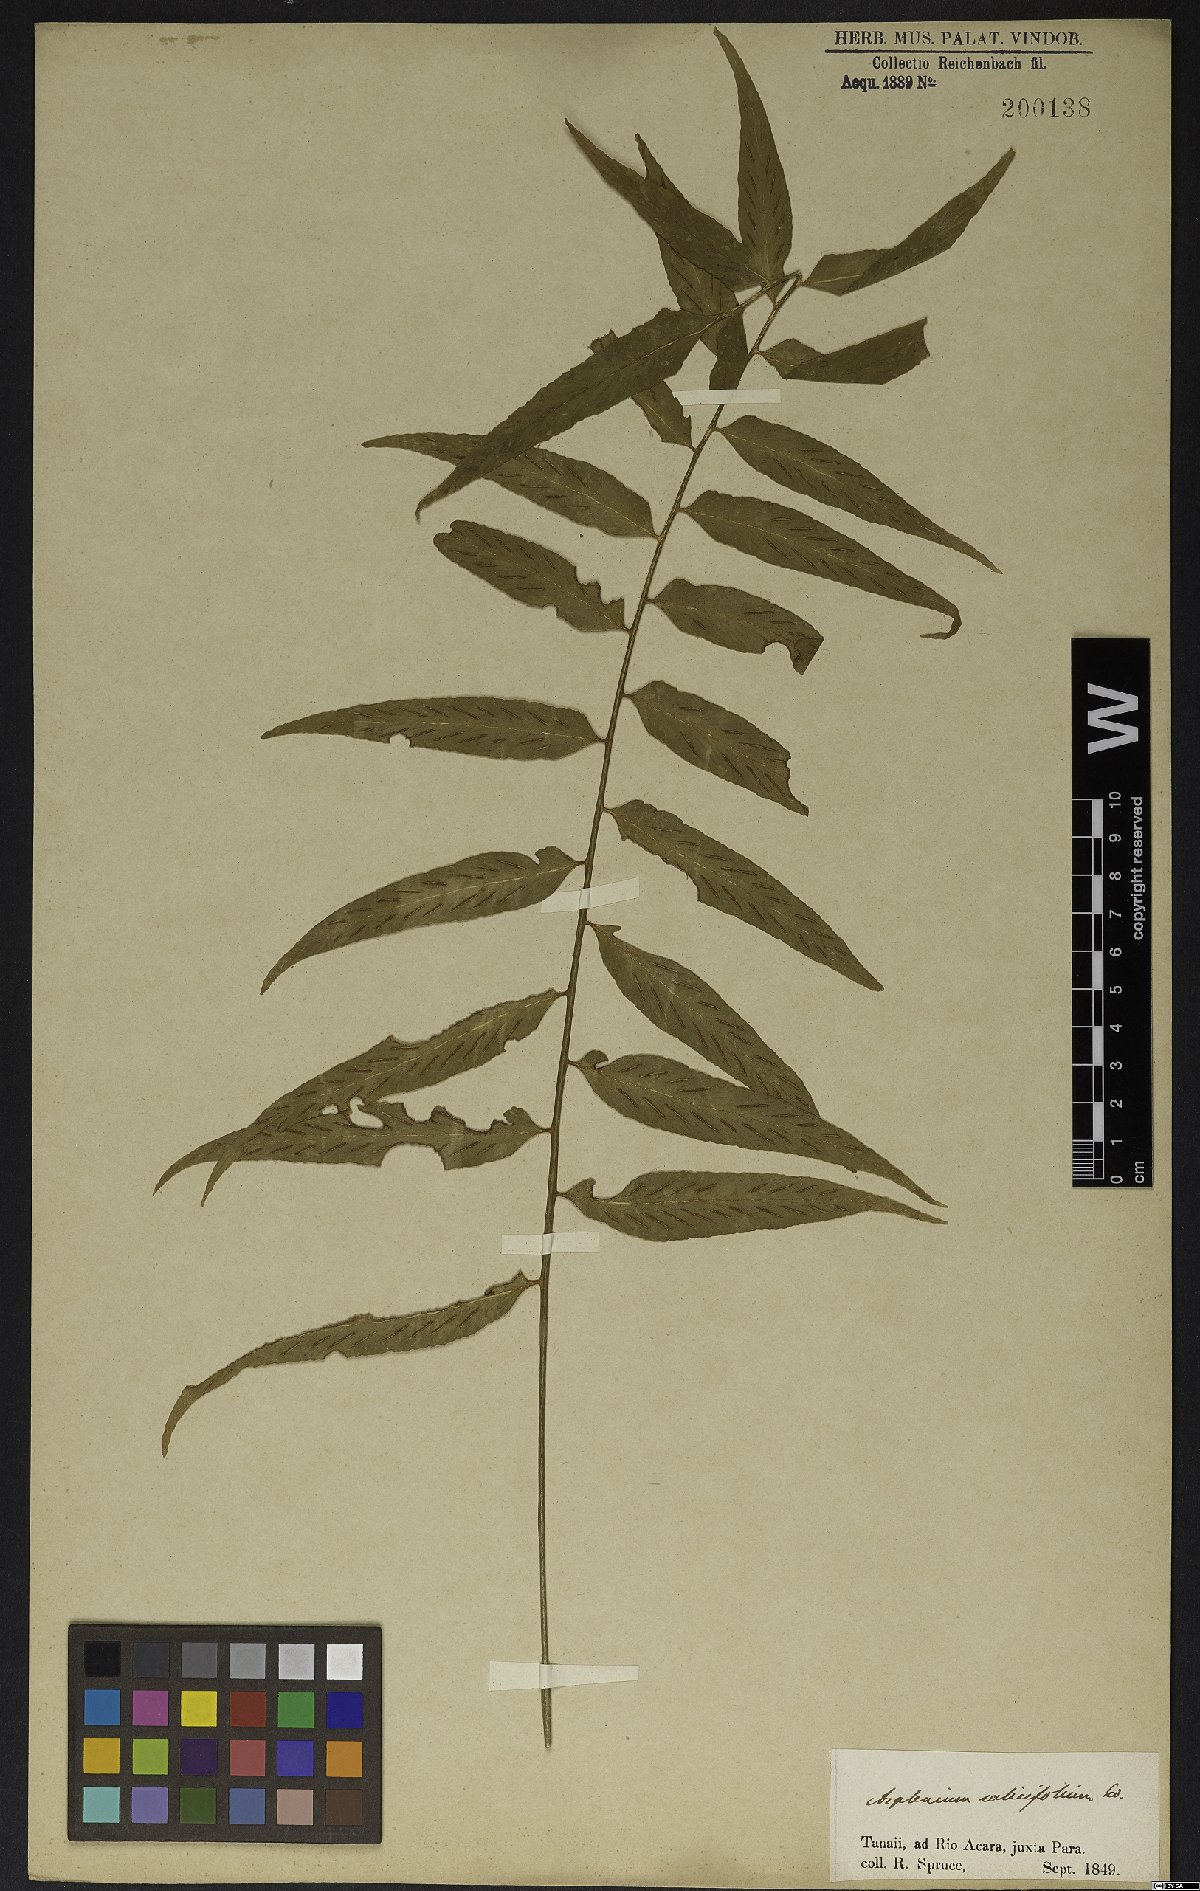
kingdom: Plantae
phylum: Tracheophyta
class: Polypodiopsida
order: Polypodiales
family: Aspleniaceae
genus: Asplenium
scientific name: Asplenium salicifolium
